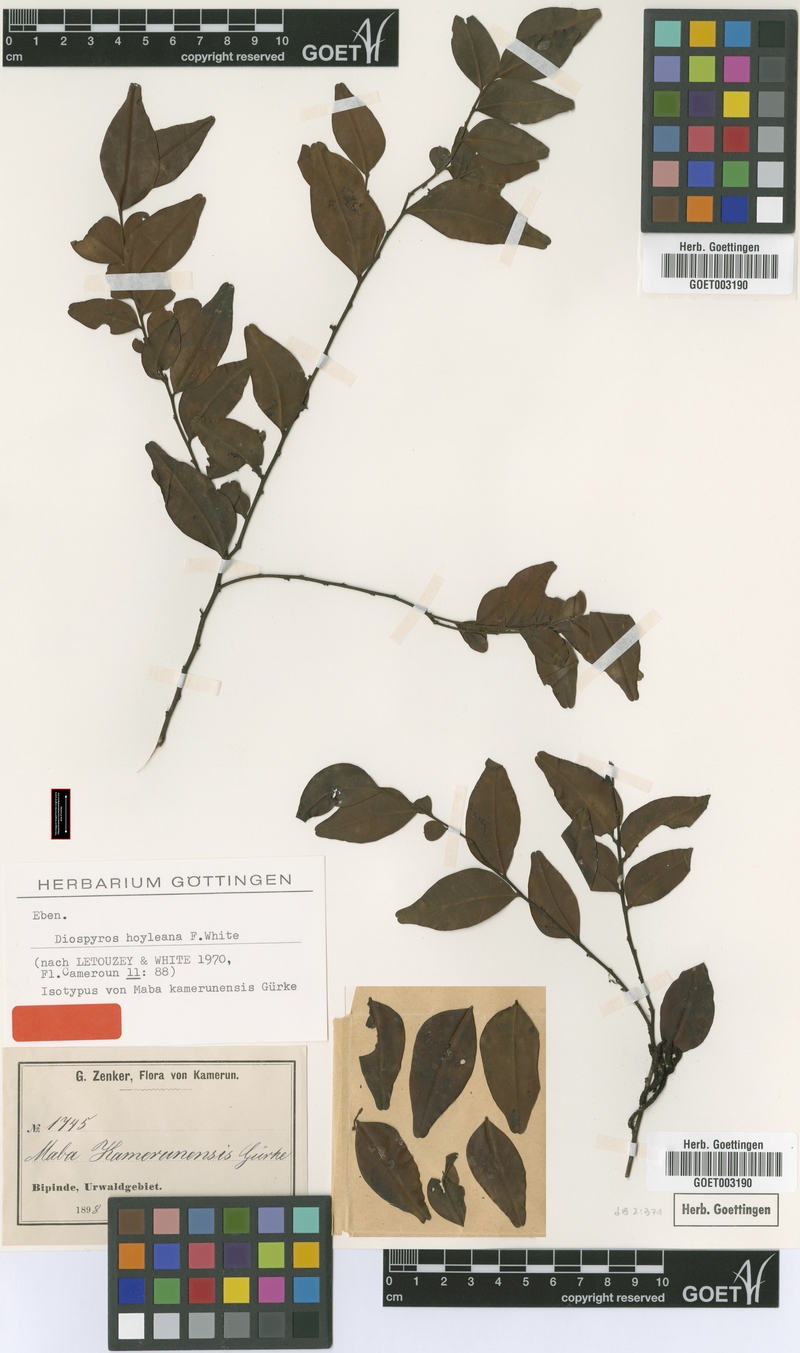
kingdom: Plantae
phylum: Tracheophyta
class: Magnoliopsida
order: Ericales
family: Ebenaceae
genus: Diospyros
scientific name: Diospyros hoyleana
